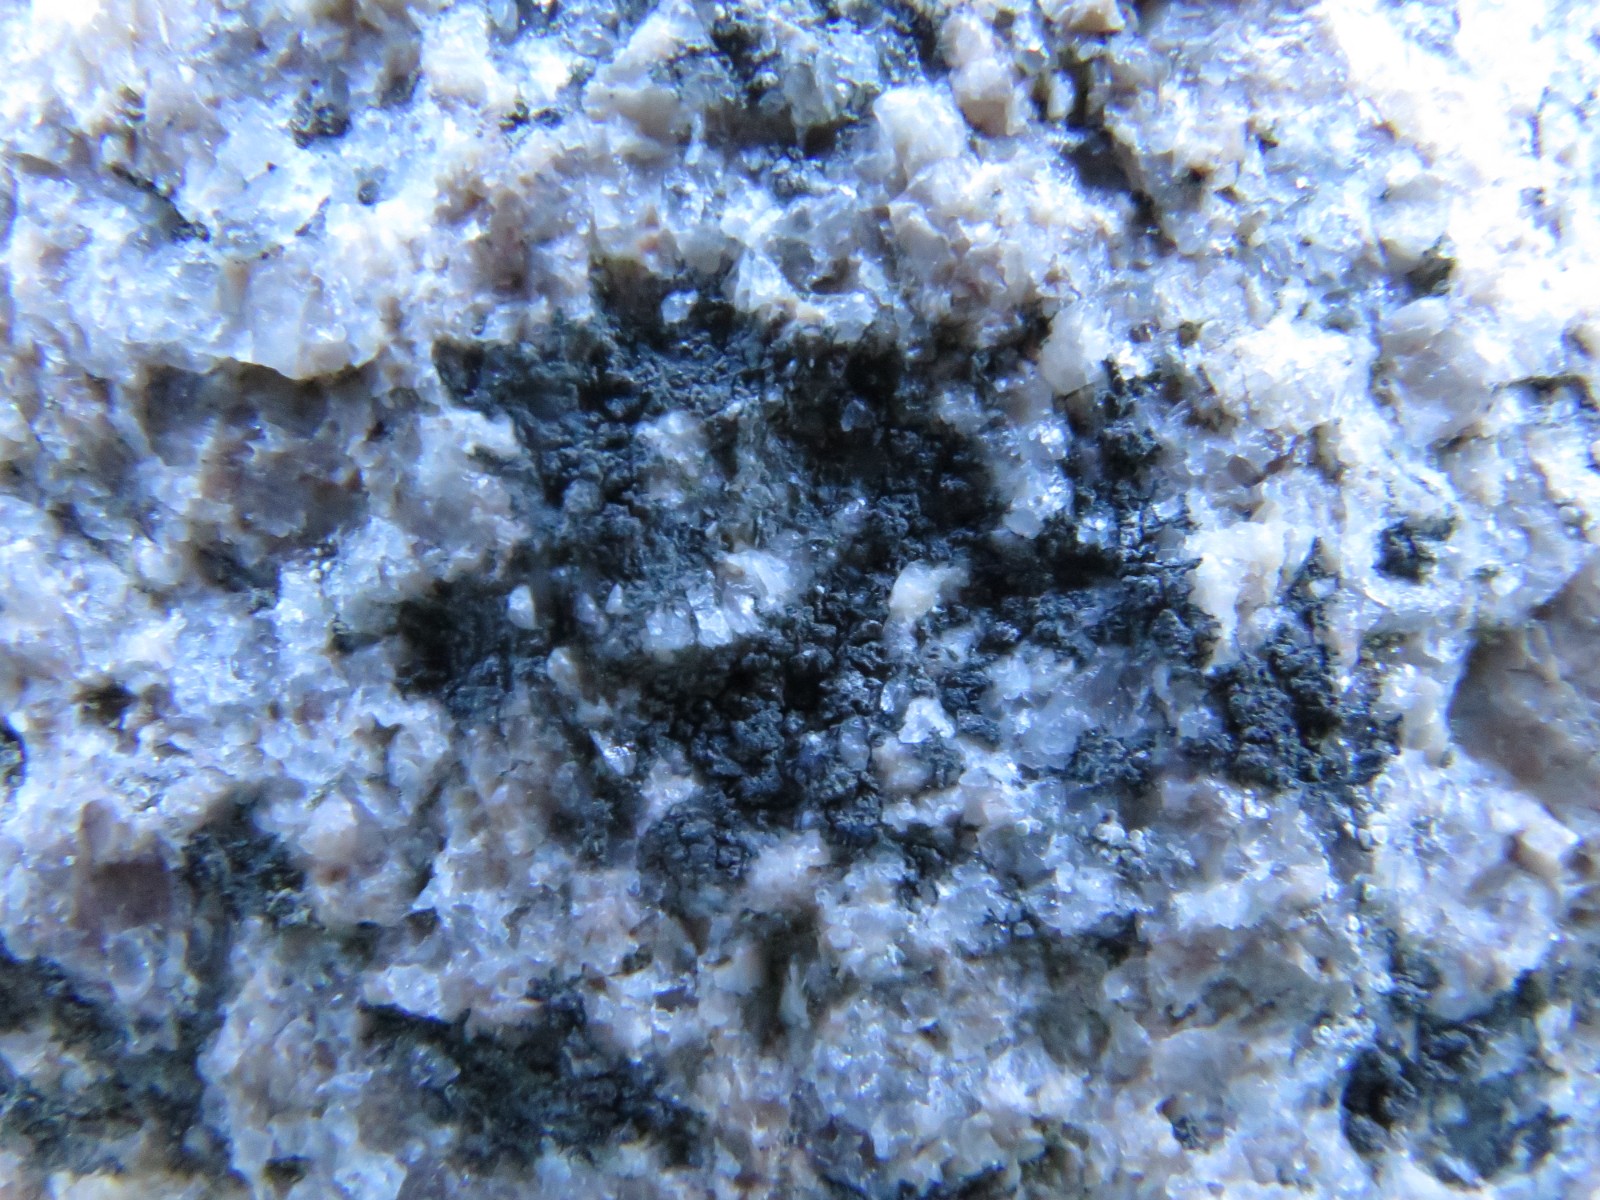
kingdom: Fungi
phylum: Ascomycota
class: Lecanoromycetes
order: Acarosporales
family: Acarosporaceae
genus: Acarospora
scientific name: Acarospora privigna
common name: sort foldekantlav
